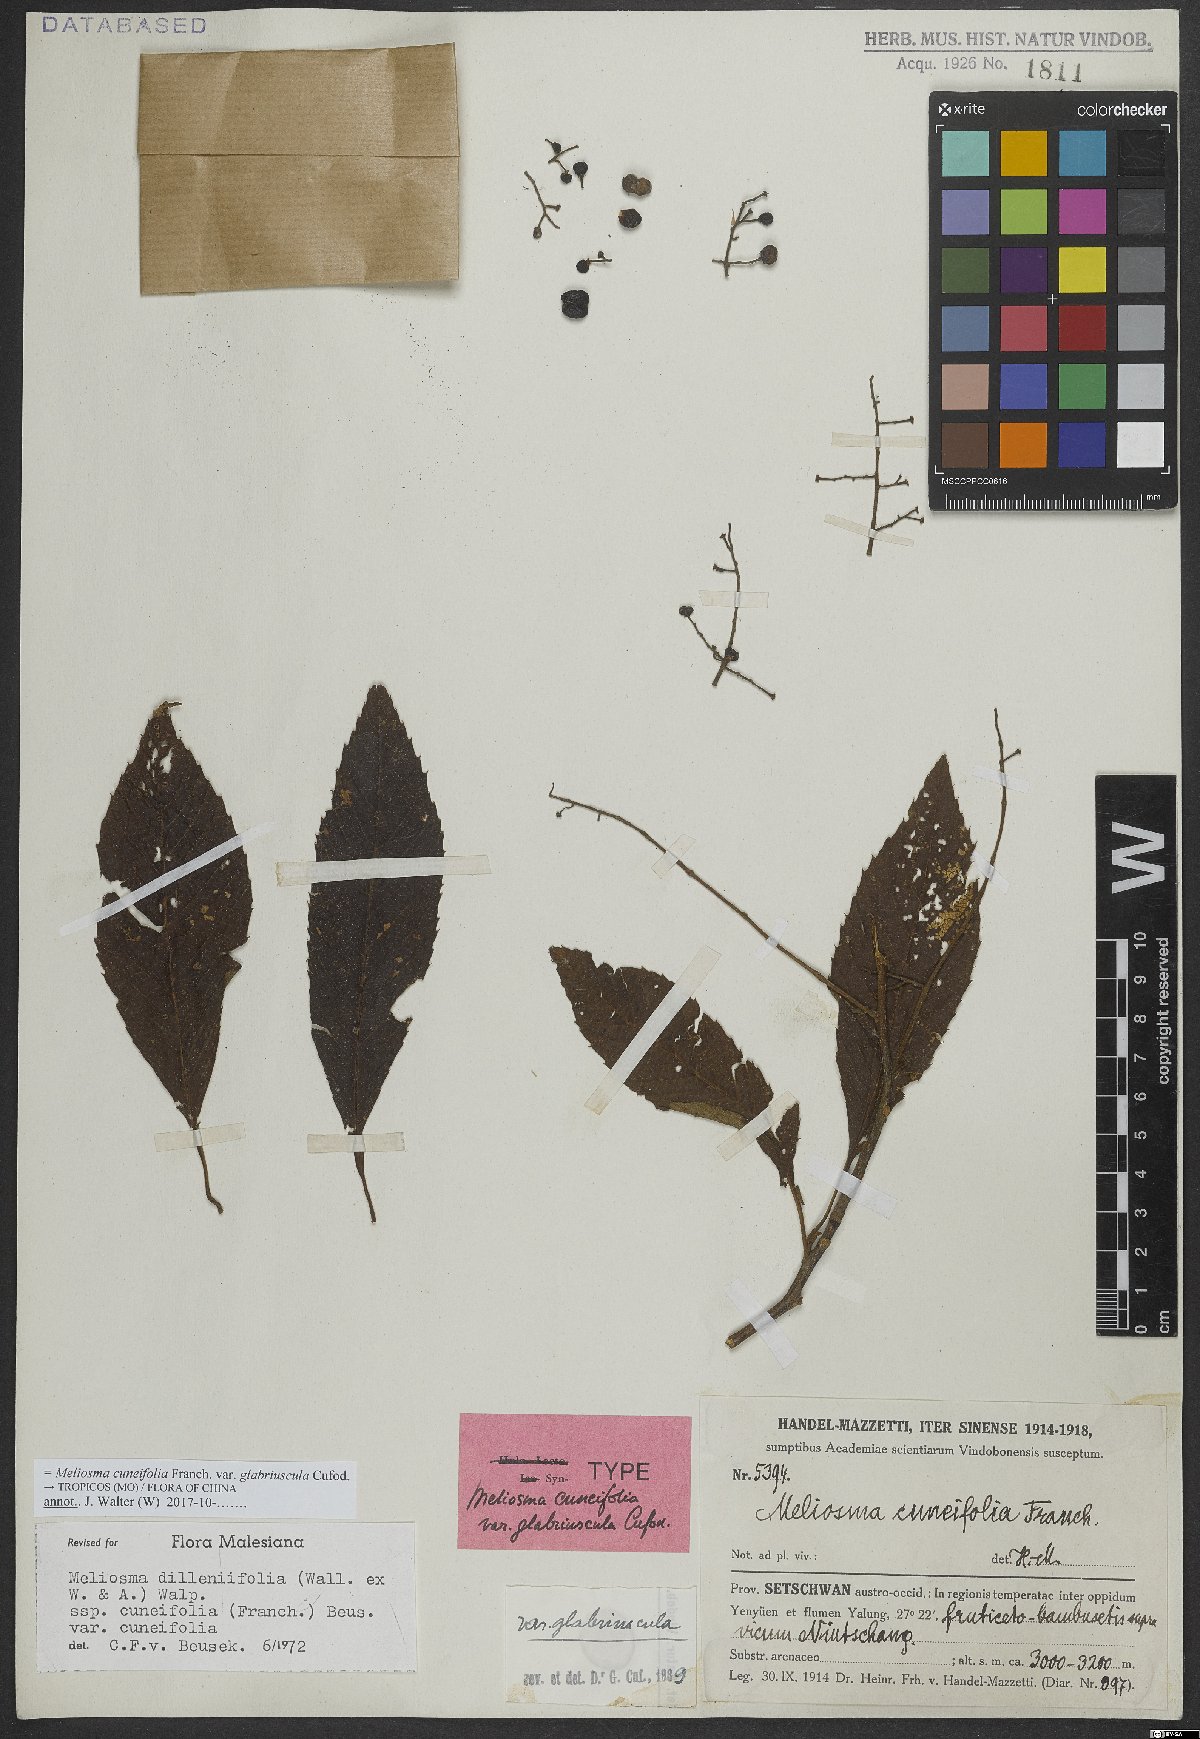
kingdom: Plantae
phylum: Tracheophyta
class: Magnoliopsida
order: Proteales
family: Sabiaceae
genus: Meliosma
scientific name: Meliosma cuneifolia
